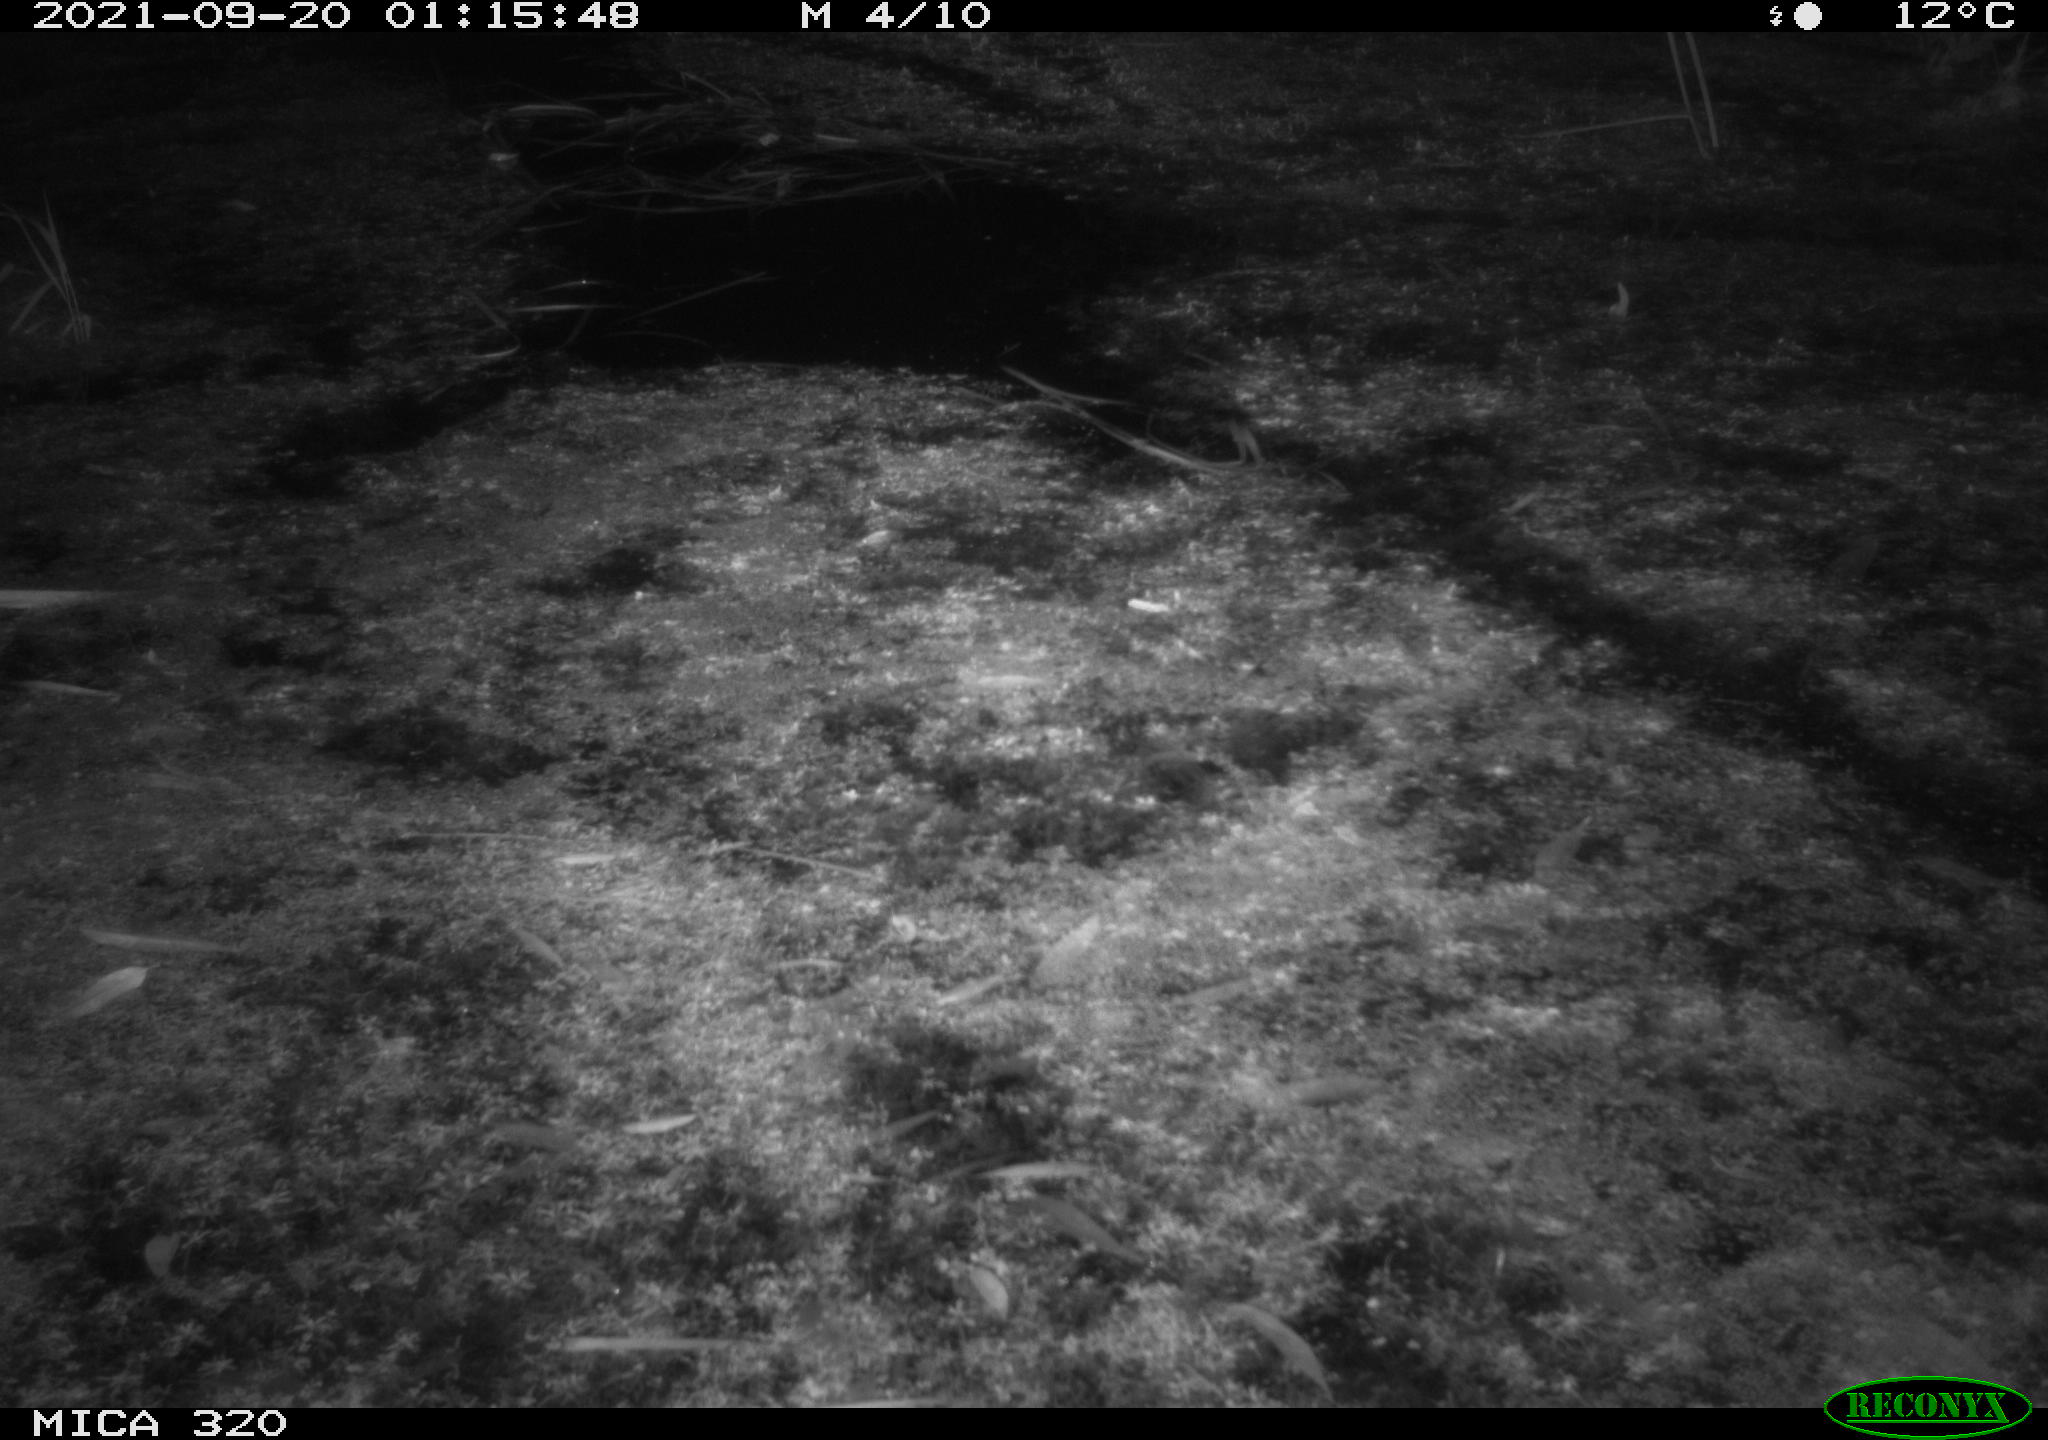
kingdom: Animalia
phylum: Chordata
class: Aves
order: Anseriformes
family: Anatidae
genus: Anas
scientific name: Anas platyrhynchos
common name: Mallard
